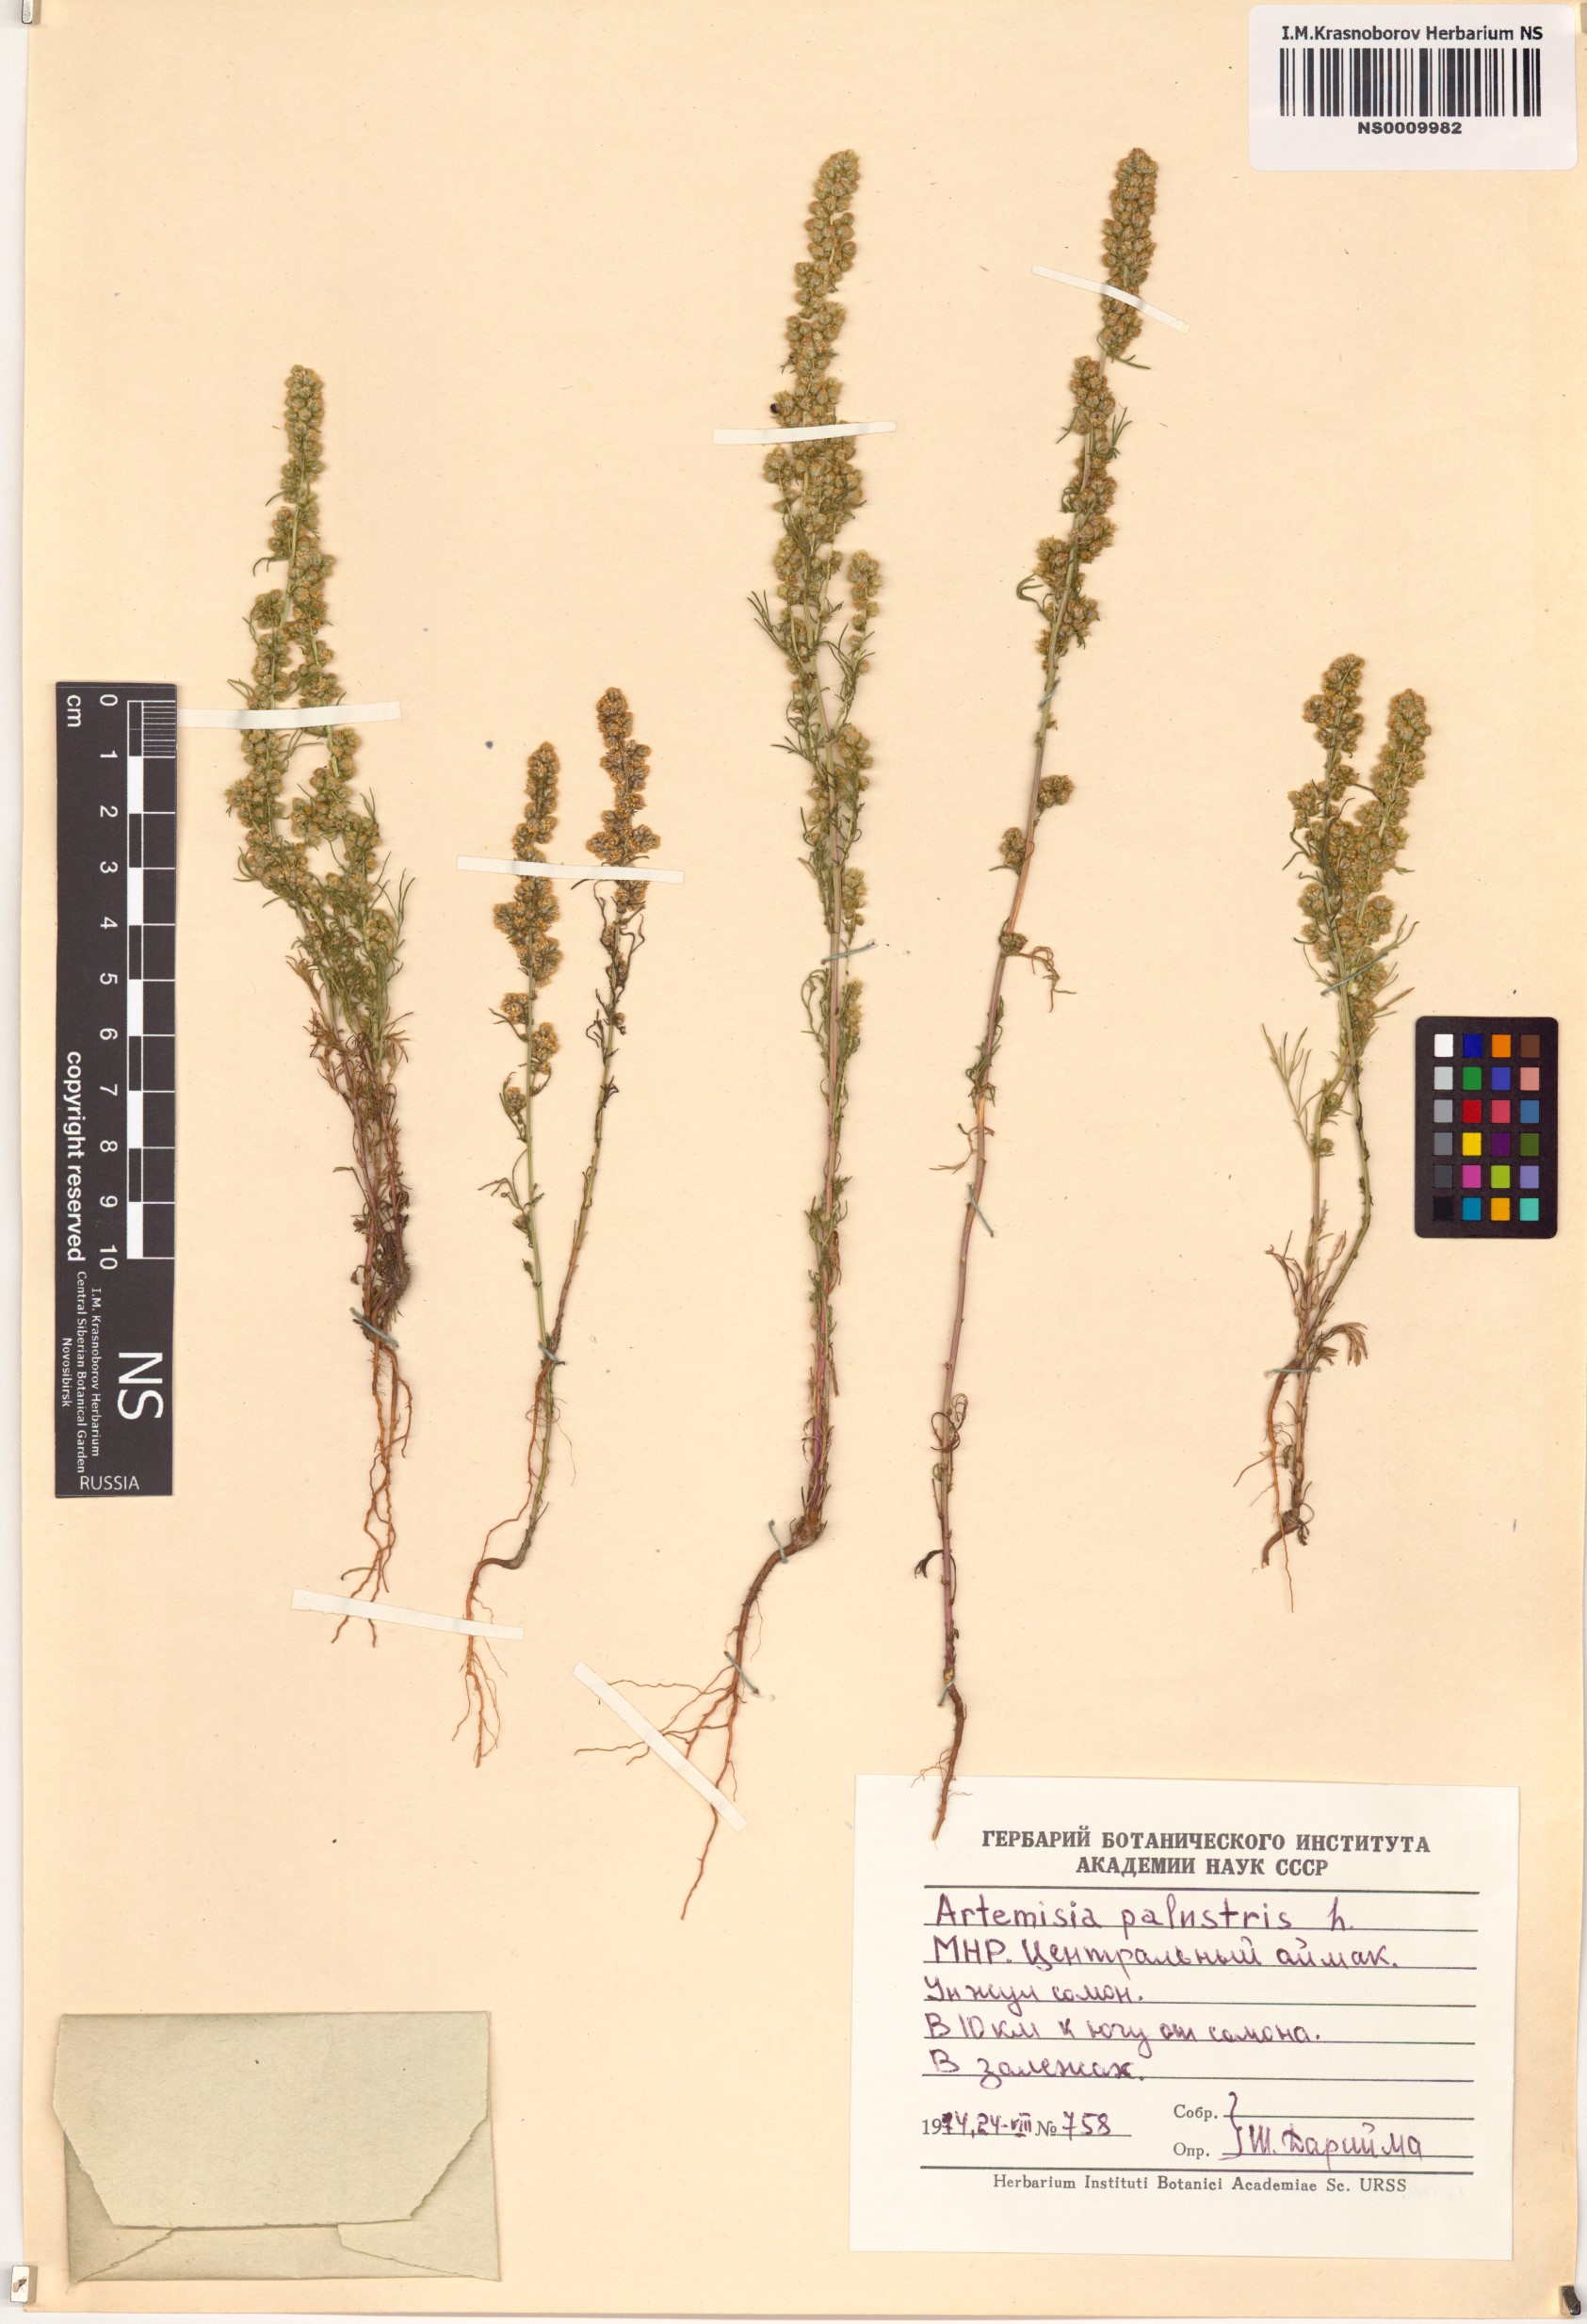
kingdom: Plantae
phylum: Tracheophyta
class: Magnoliopsida
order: Asterales
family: Asteraceae
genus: Artemisia
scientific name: Artemisia palustris
